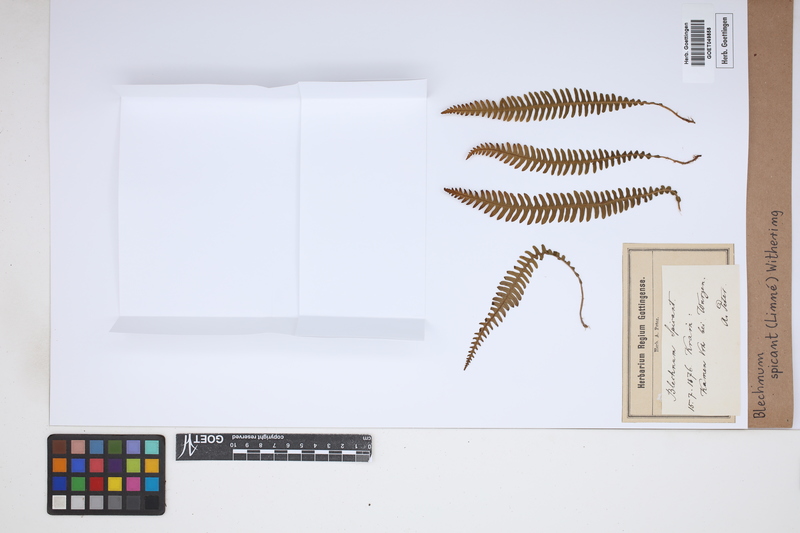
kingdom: Plantae
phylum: Tracheophyta
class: Polypodiopsida
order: Polypodiales
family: Blechnaceae
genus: Struthiopteris
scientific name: Struthiopteris spicant
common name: Deer fern
